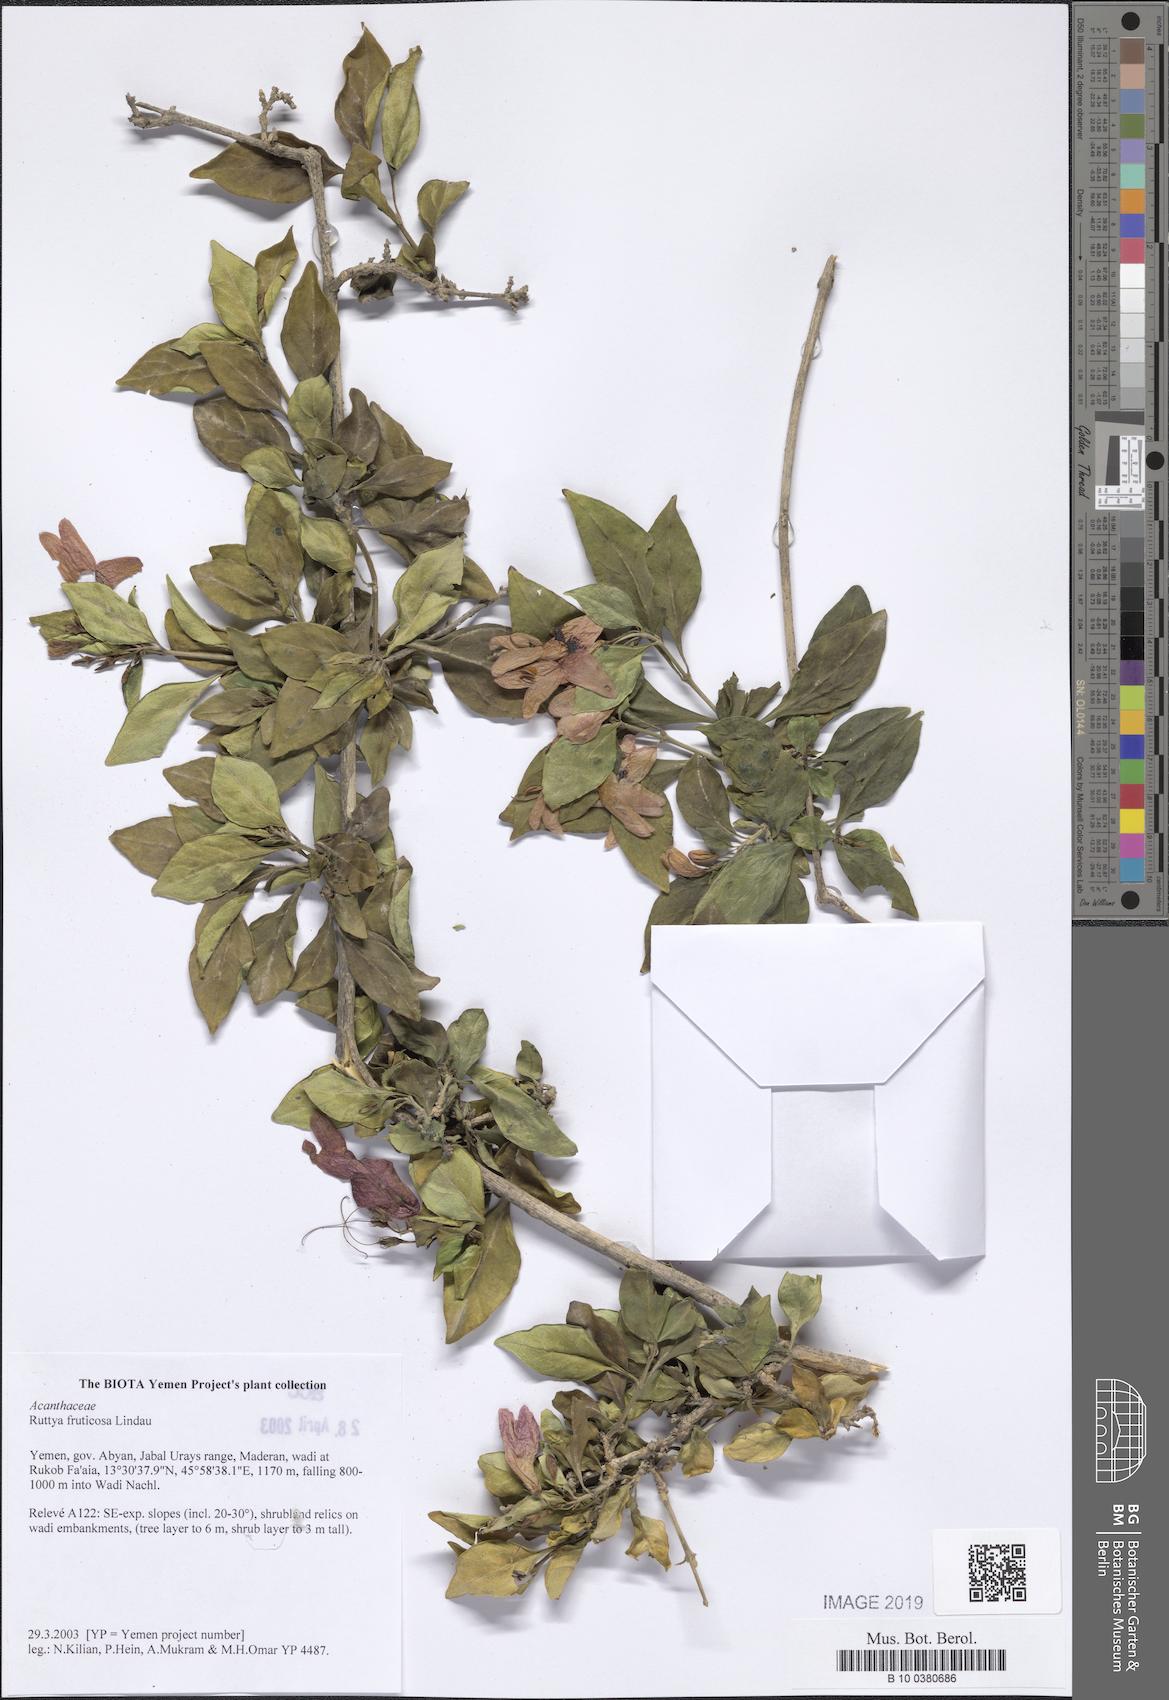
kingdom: Plantae
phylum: Tracheophyta
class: Magnoliopsida
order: Lamiales
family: Acanthaceae
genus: Ruttya
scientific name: Ruttya fruticosa
